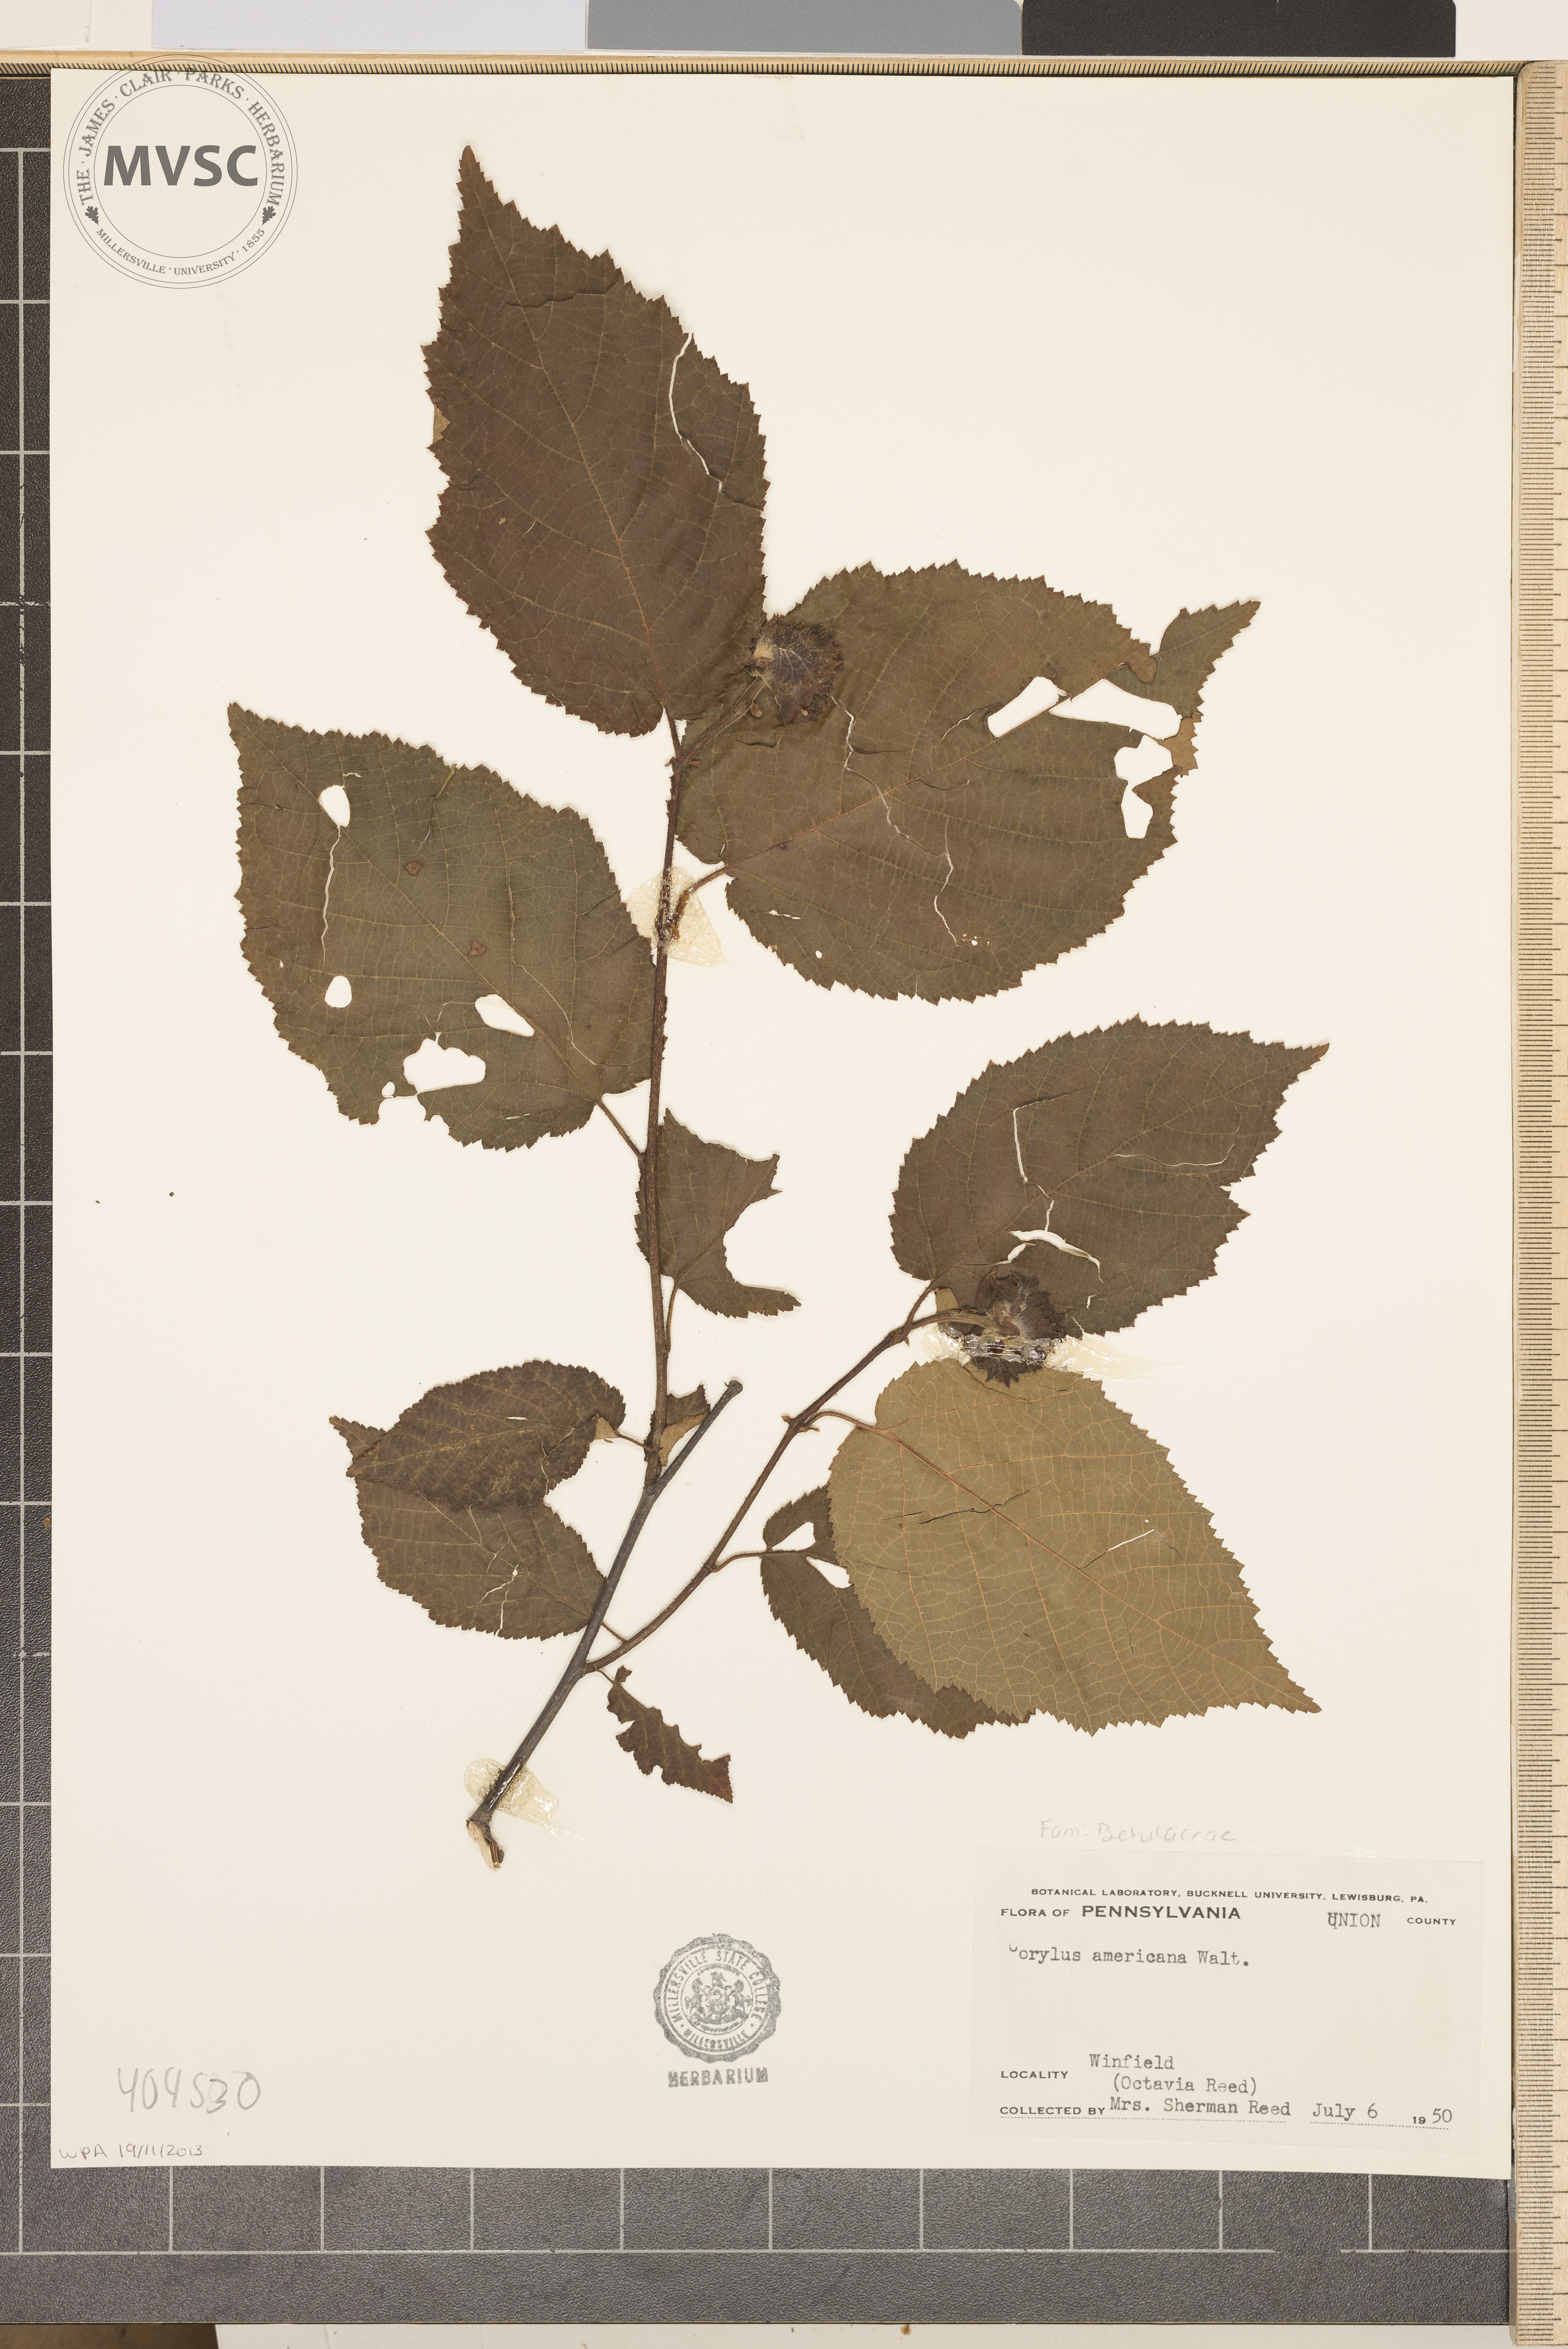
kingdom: Plantae
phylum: Tracheophyta
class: Magnoliopsida
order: Fagales
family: Betulaceae
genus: Corylus
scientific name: Corylus americana
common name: American hazel
